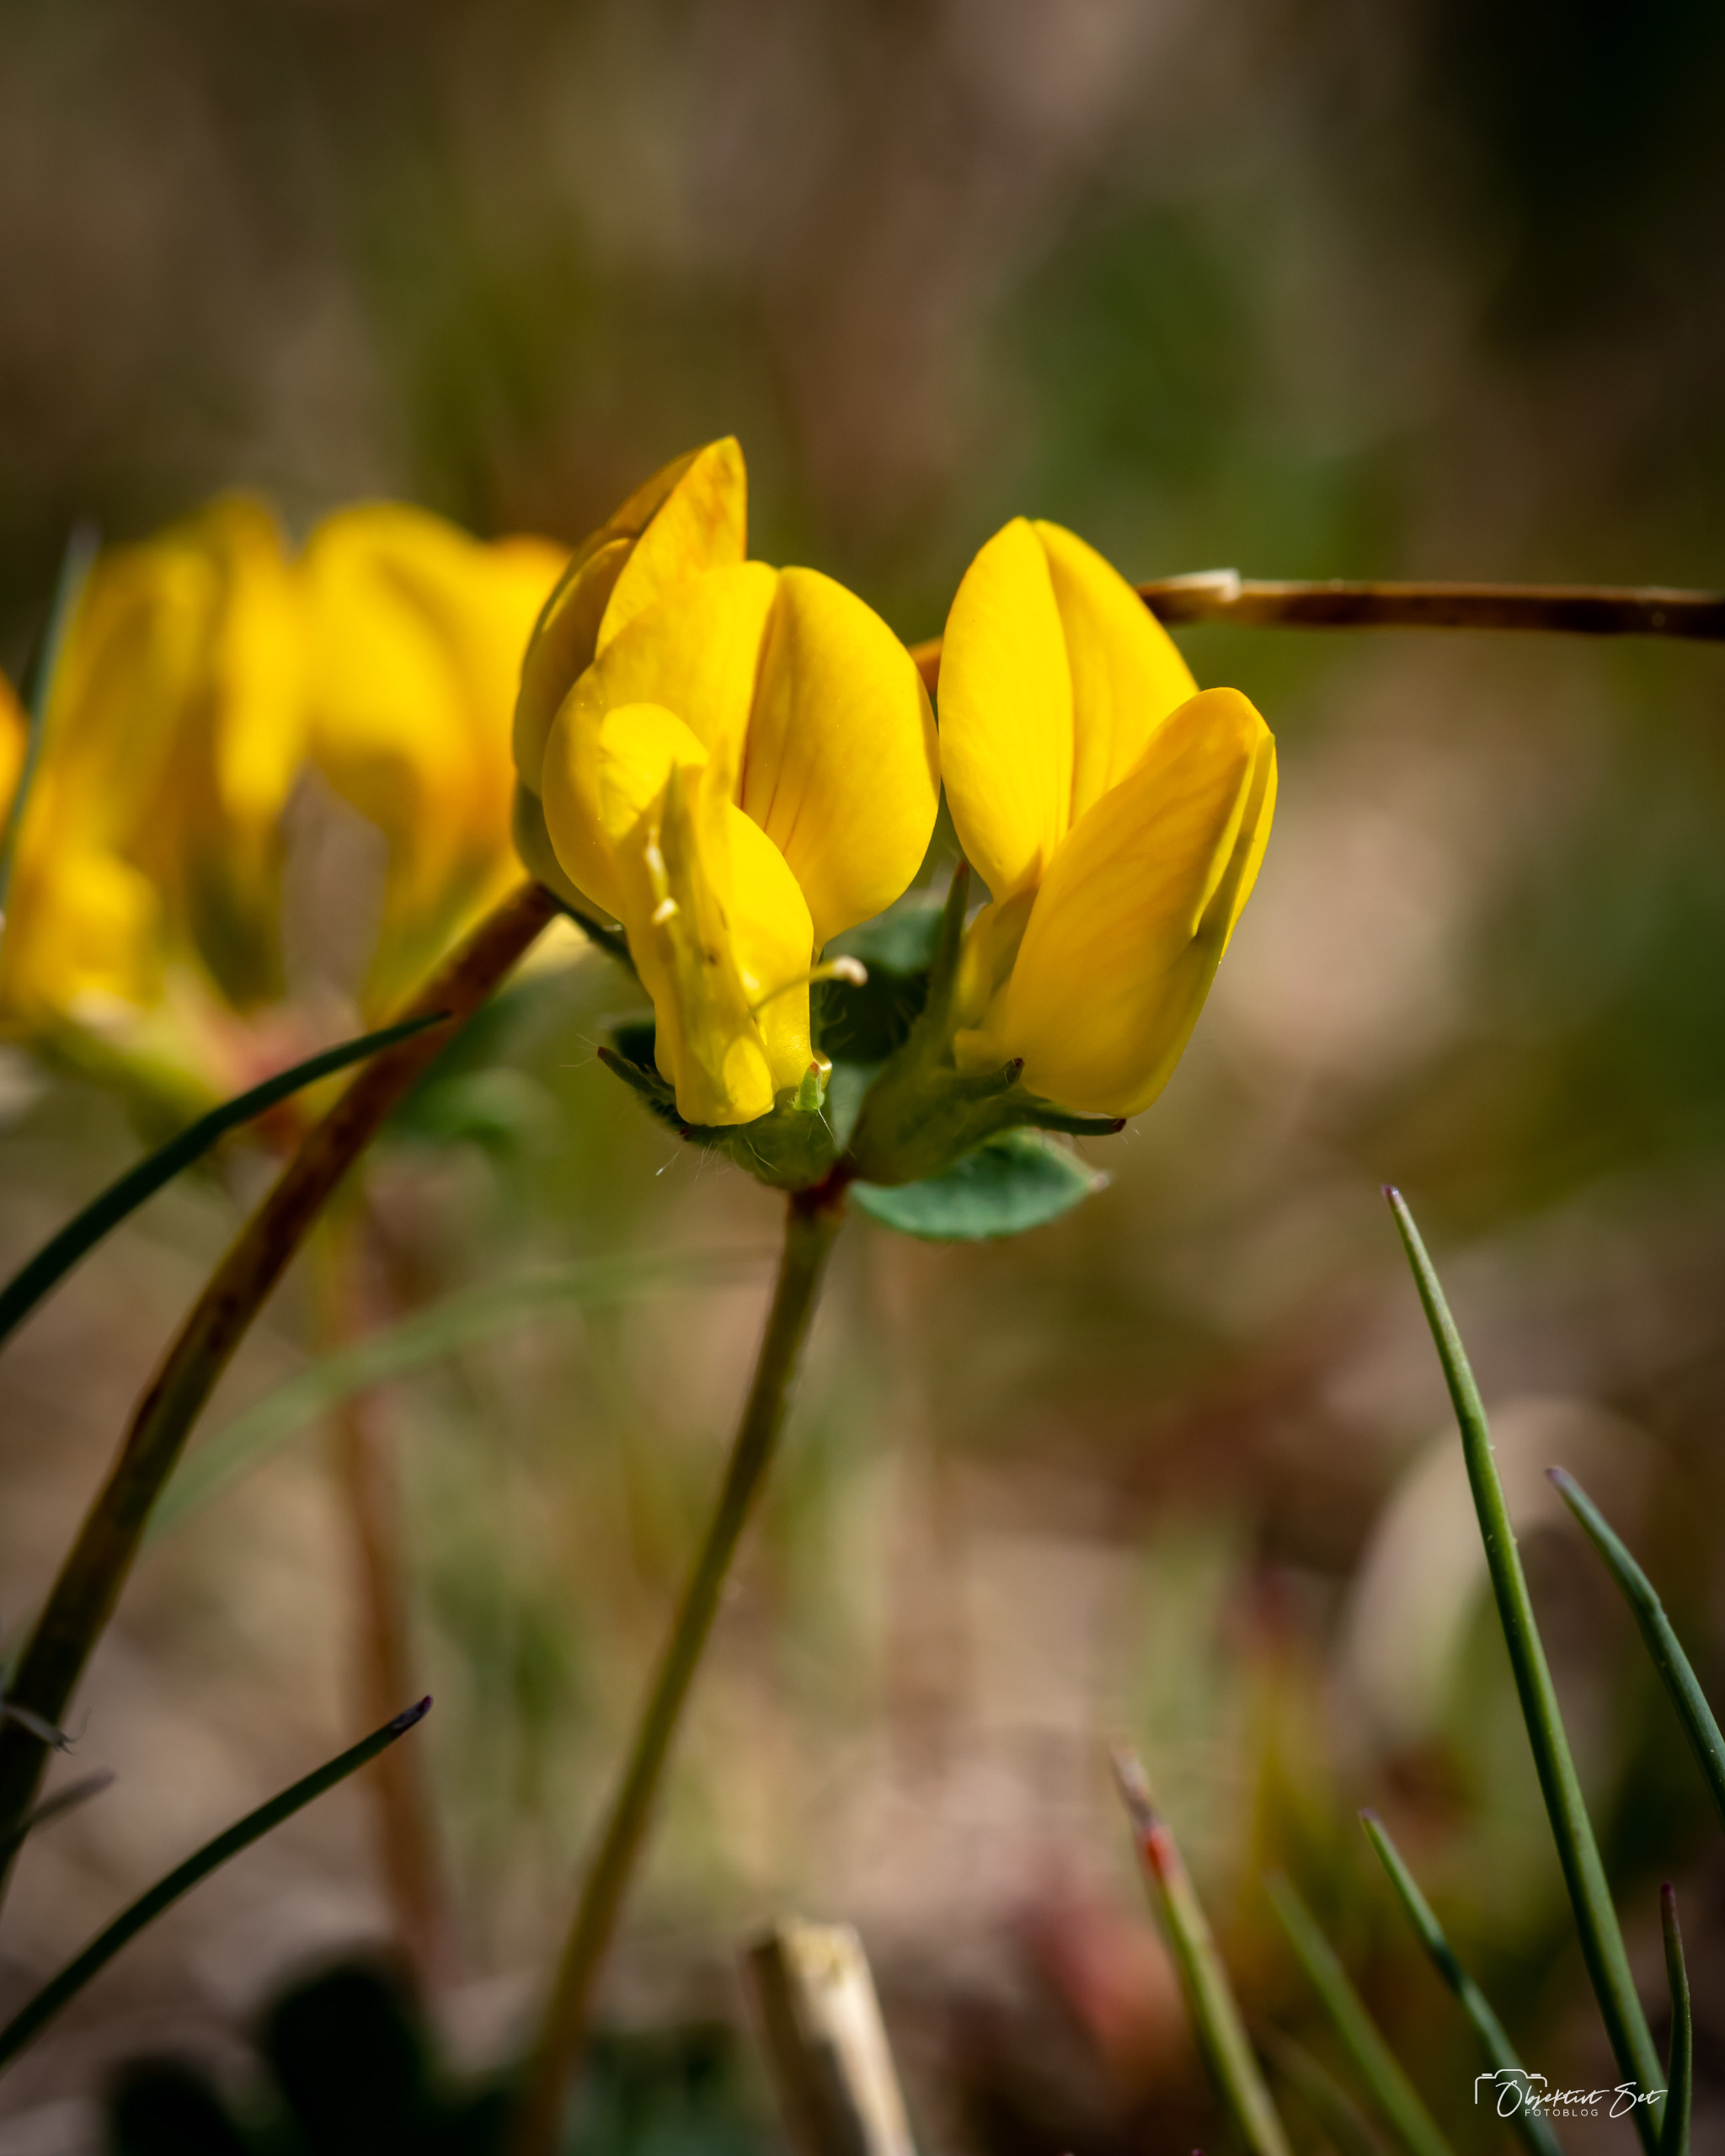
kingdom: Plantae
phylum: Tracheophyta
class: Magnoliopsida
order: Fabales
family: Fabaceae
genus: Lotus
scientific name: Lotus corniculatus
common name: Almindelig kællingetand
